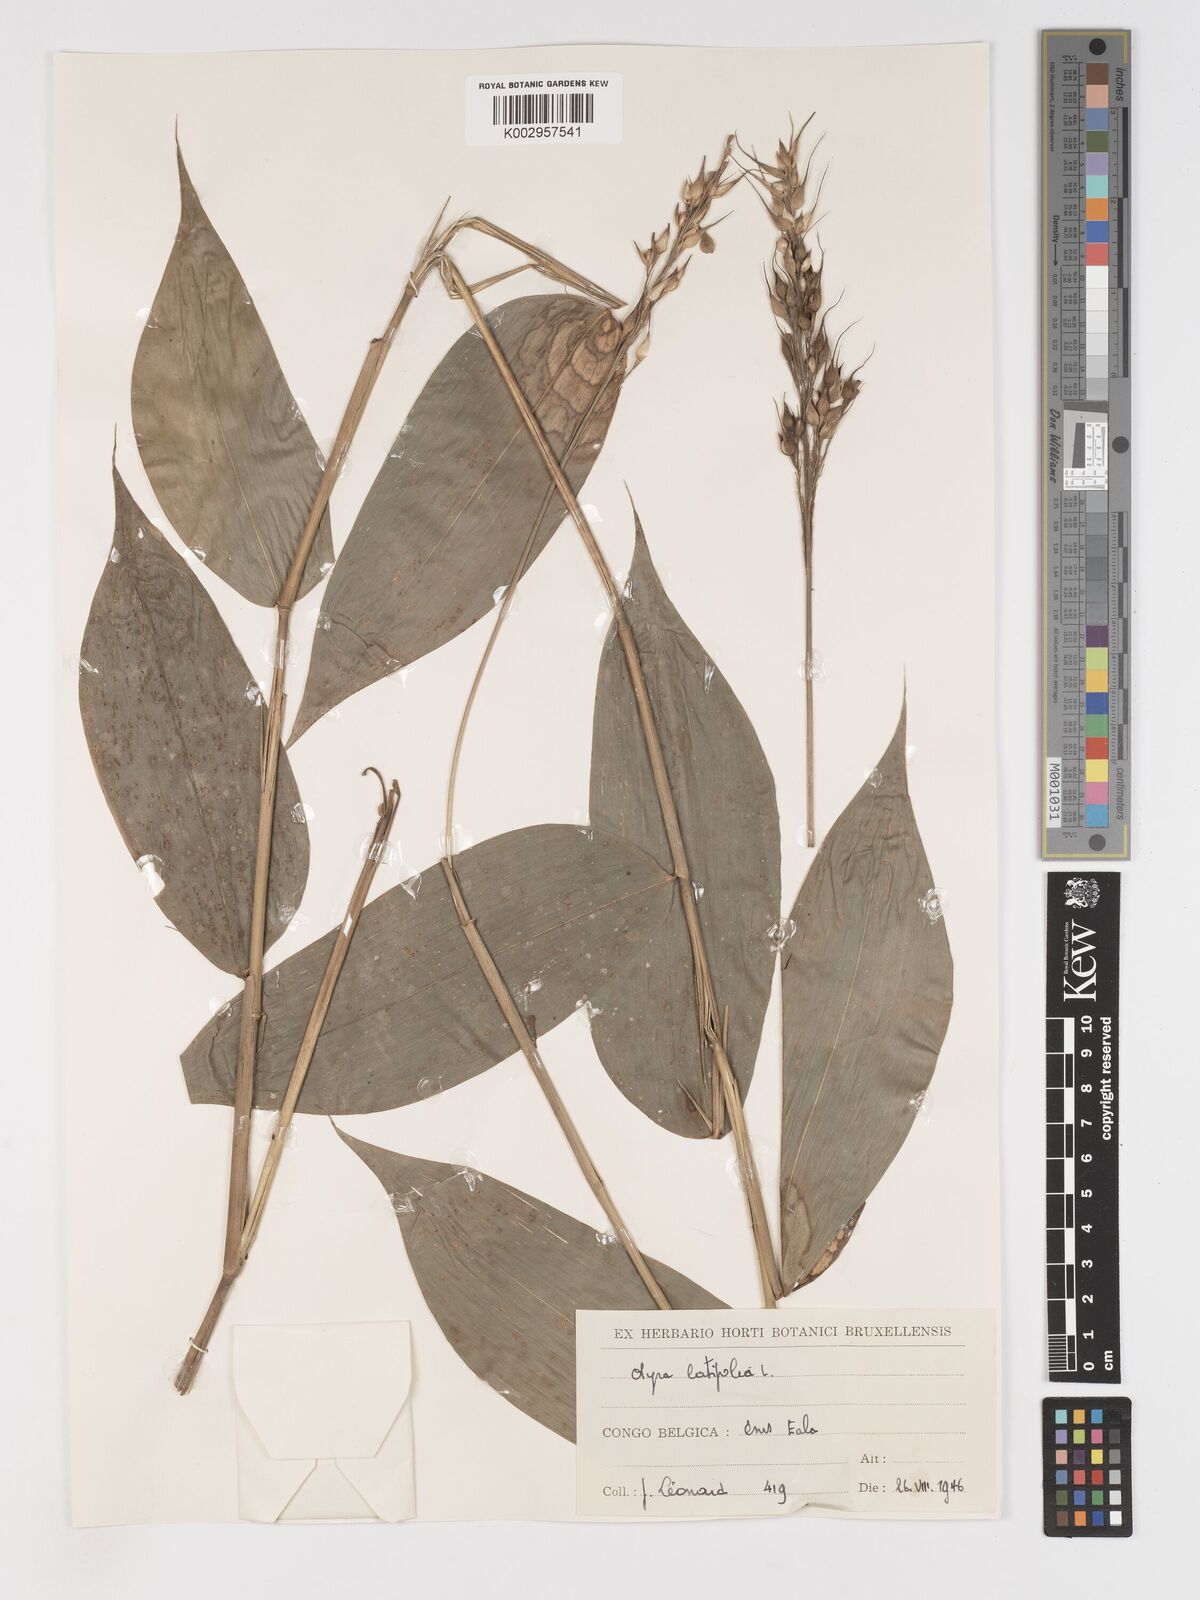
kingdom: Plantae
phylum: Tracheophyta
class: Liliopsida
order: Poales
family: Poaceae
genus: Olyra
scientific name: Olyra latifolia
